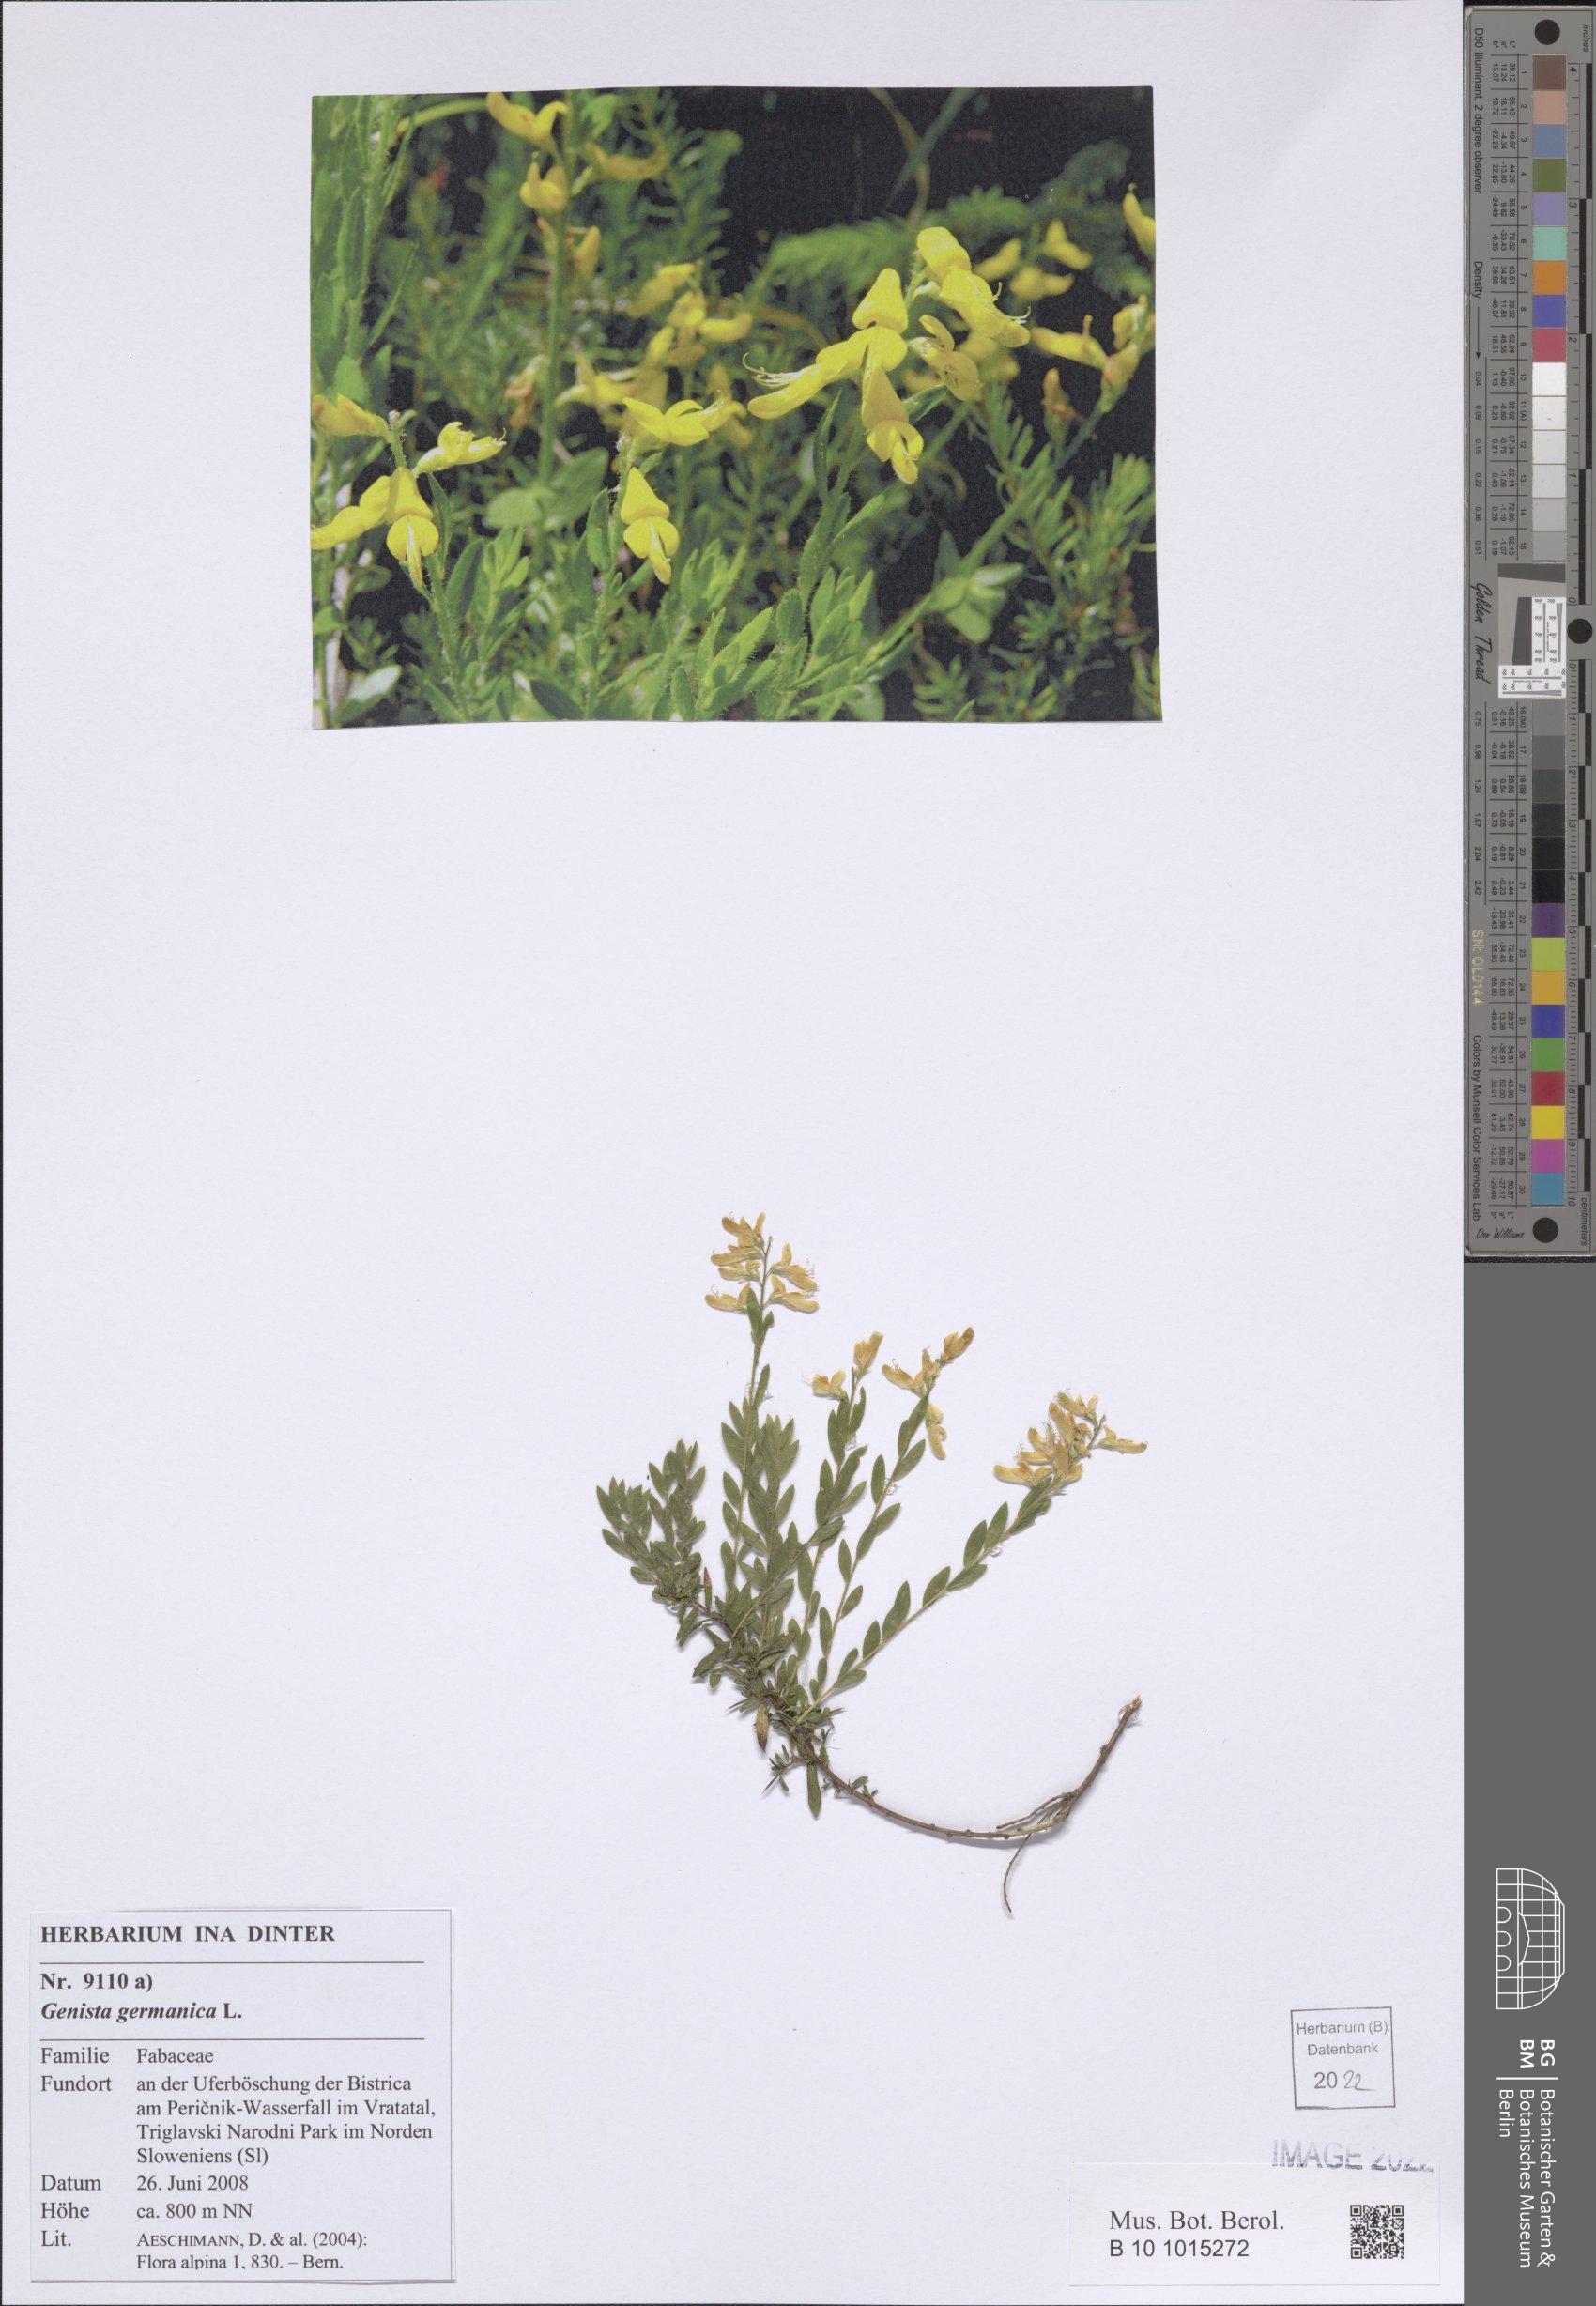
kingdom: Plantae
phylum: Tracheophyta
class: Magnoliopsida
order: Fabales
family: Fabaceae
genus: Genista
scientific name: Genista germanica
